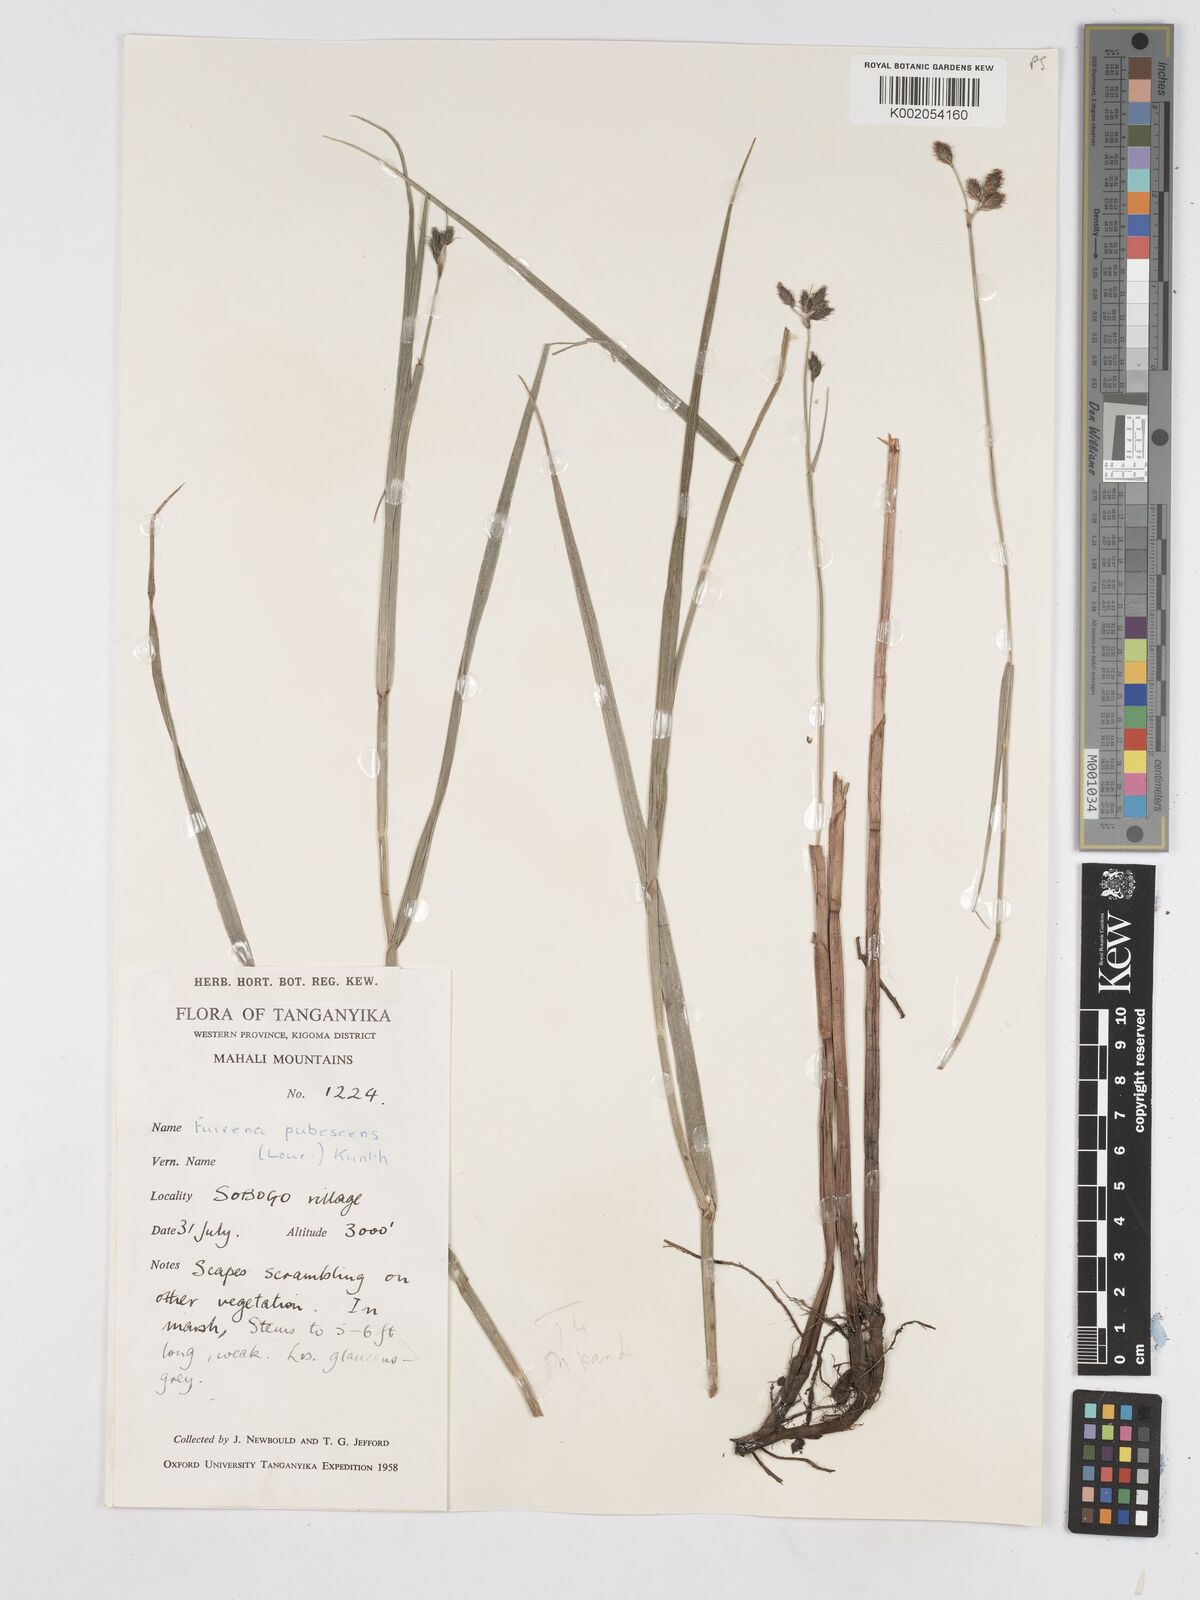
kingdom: Plantae
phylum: Tracheophyta
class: Liliopsida
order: Poales
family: Cyperaceae
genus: Fuirena
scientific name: Fuirena pachyrrhiza
